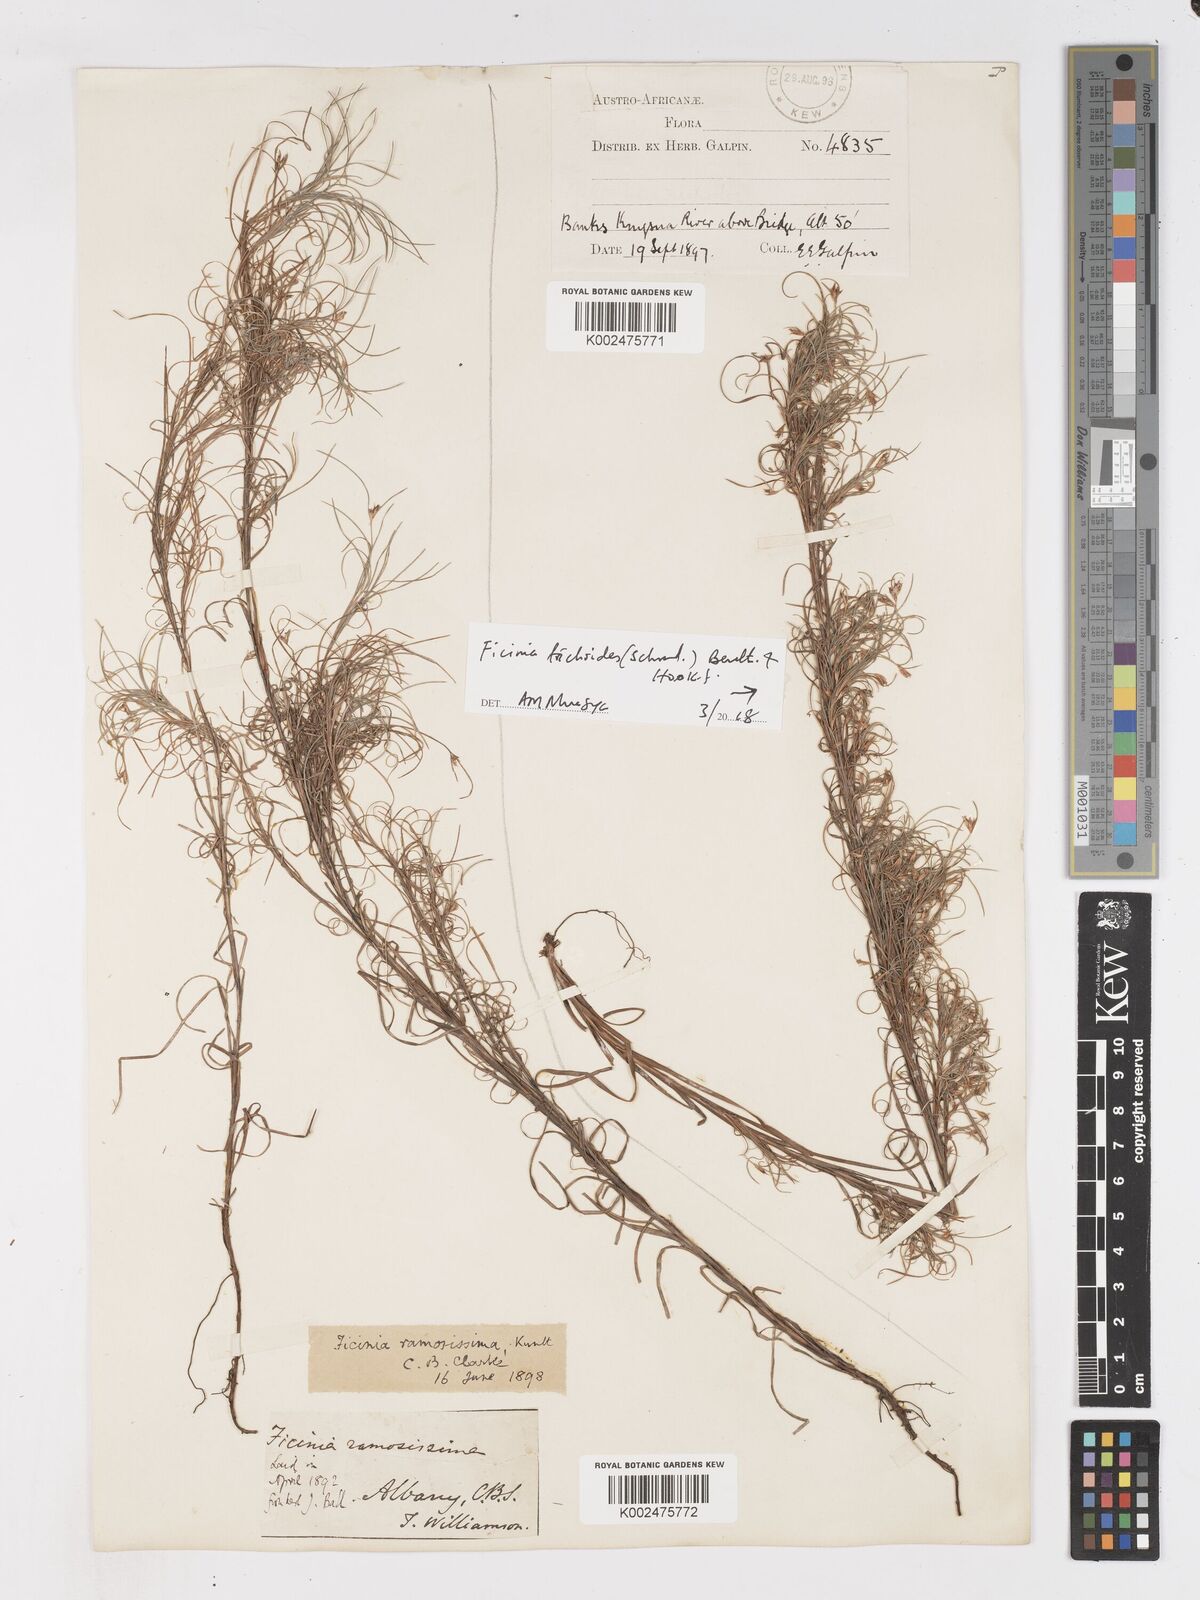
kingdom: Plantae
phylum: Tracheophyta
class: Liliopsida
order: Poales
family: Cyperaceae
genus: Ficinia
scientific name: Ficinia ramosissima
